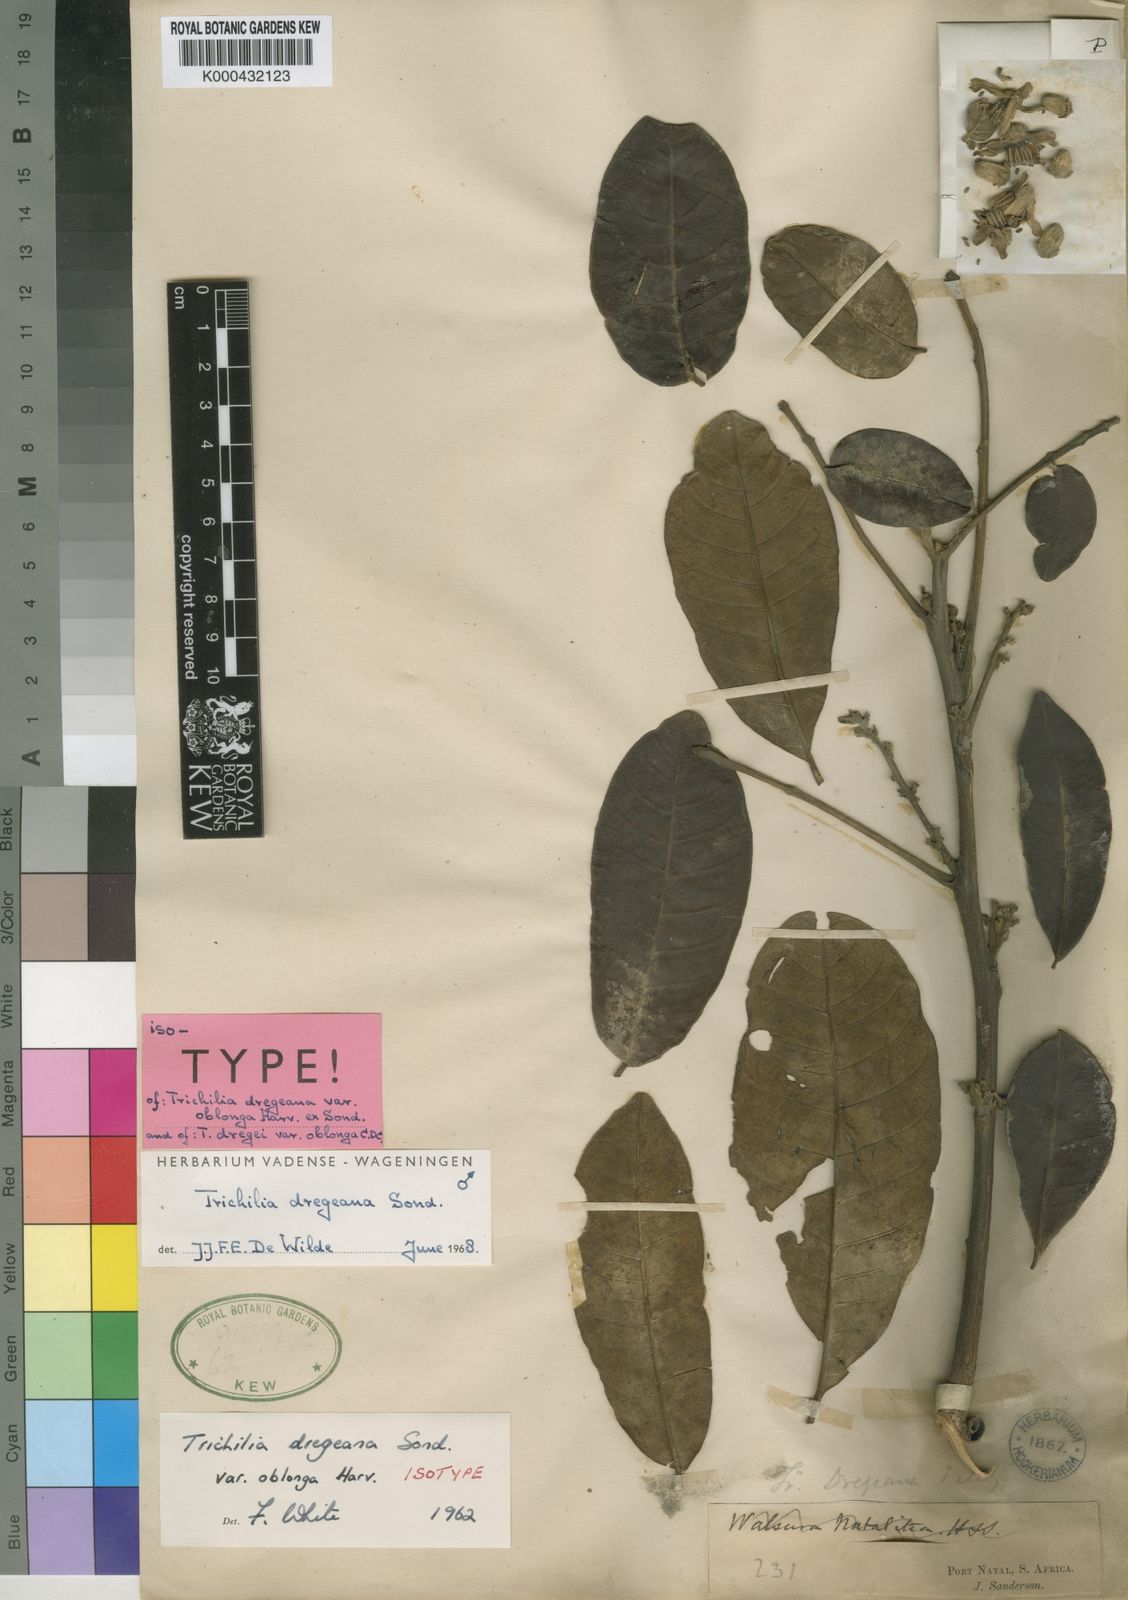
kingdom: Plantae
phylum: Tracheophyta
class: Magnoliopsida
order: Sapindales
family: Meliaceae
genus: Trichilia
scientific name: Trichilia dregeana
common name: Christmas-bells
